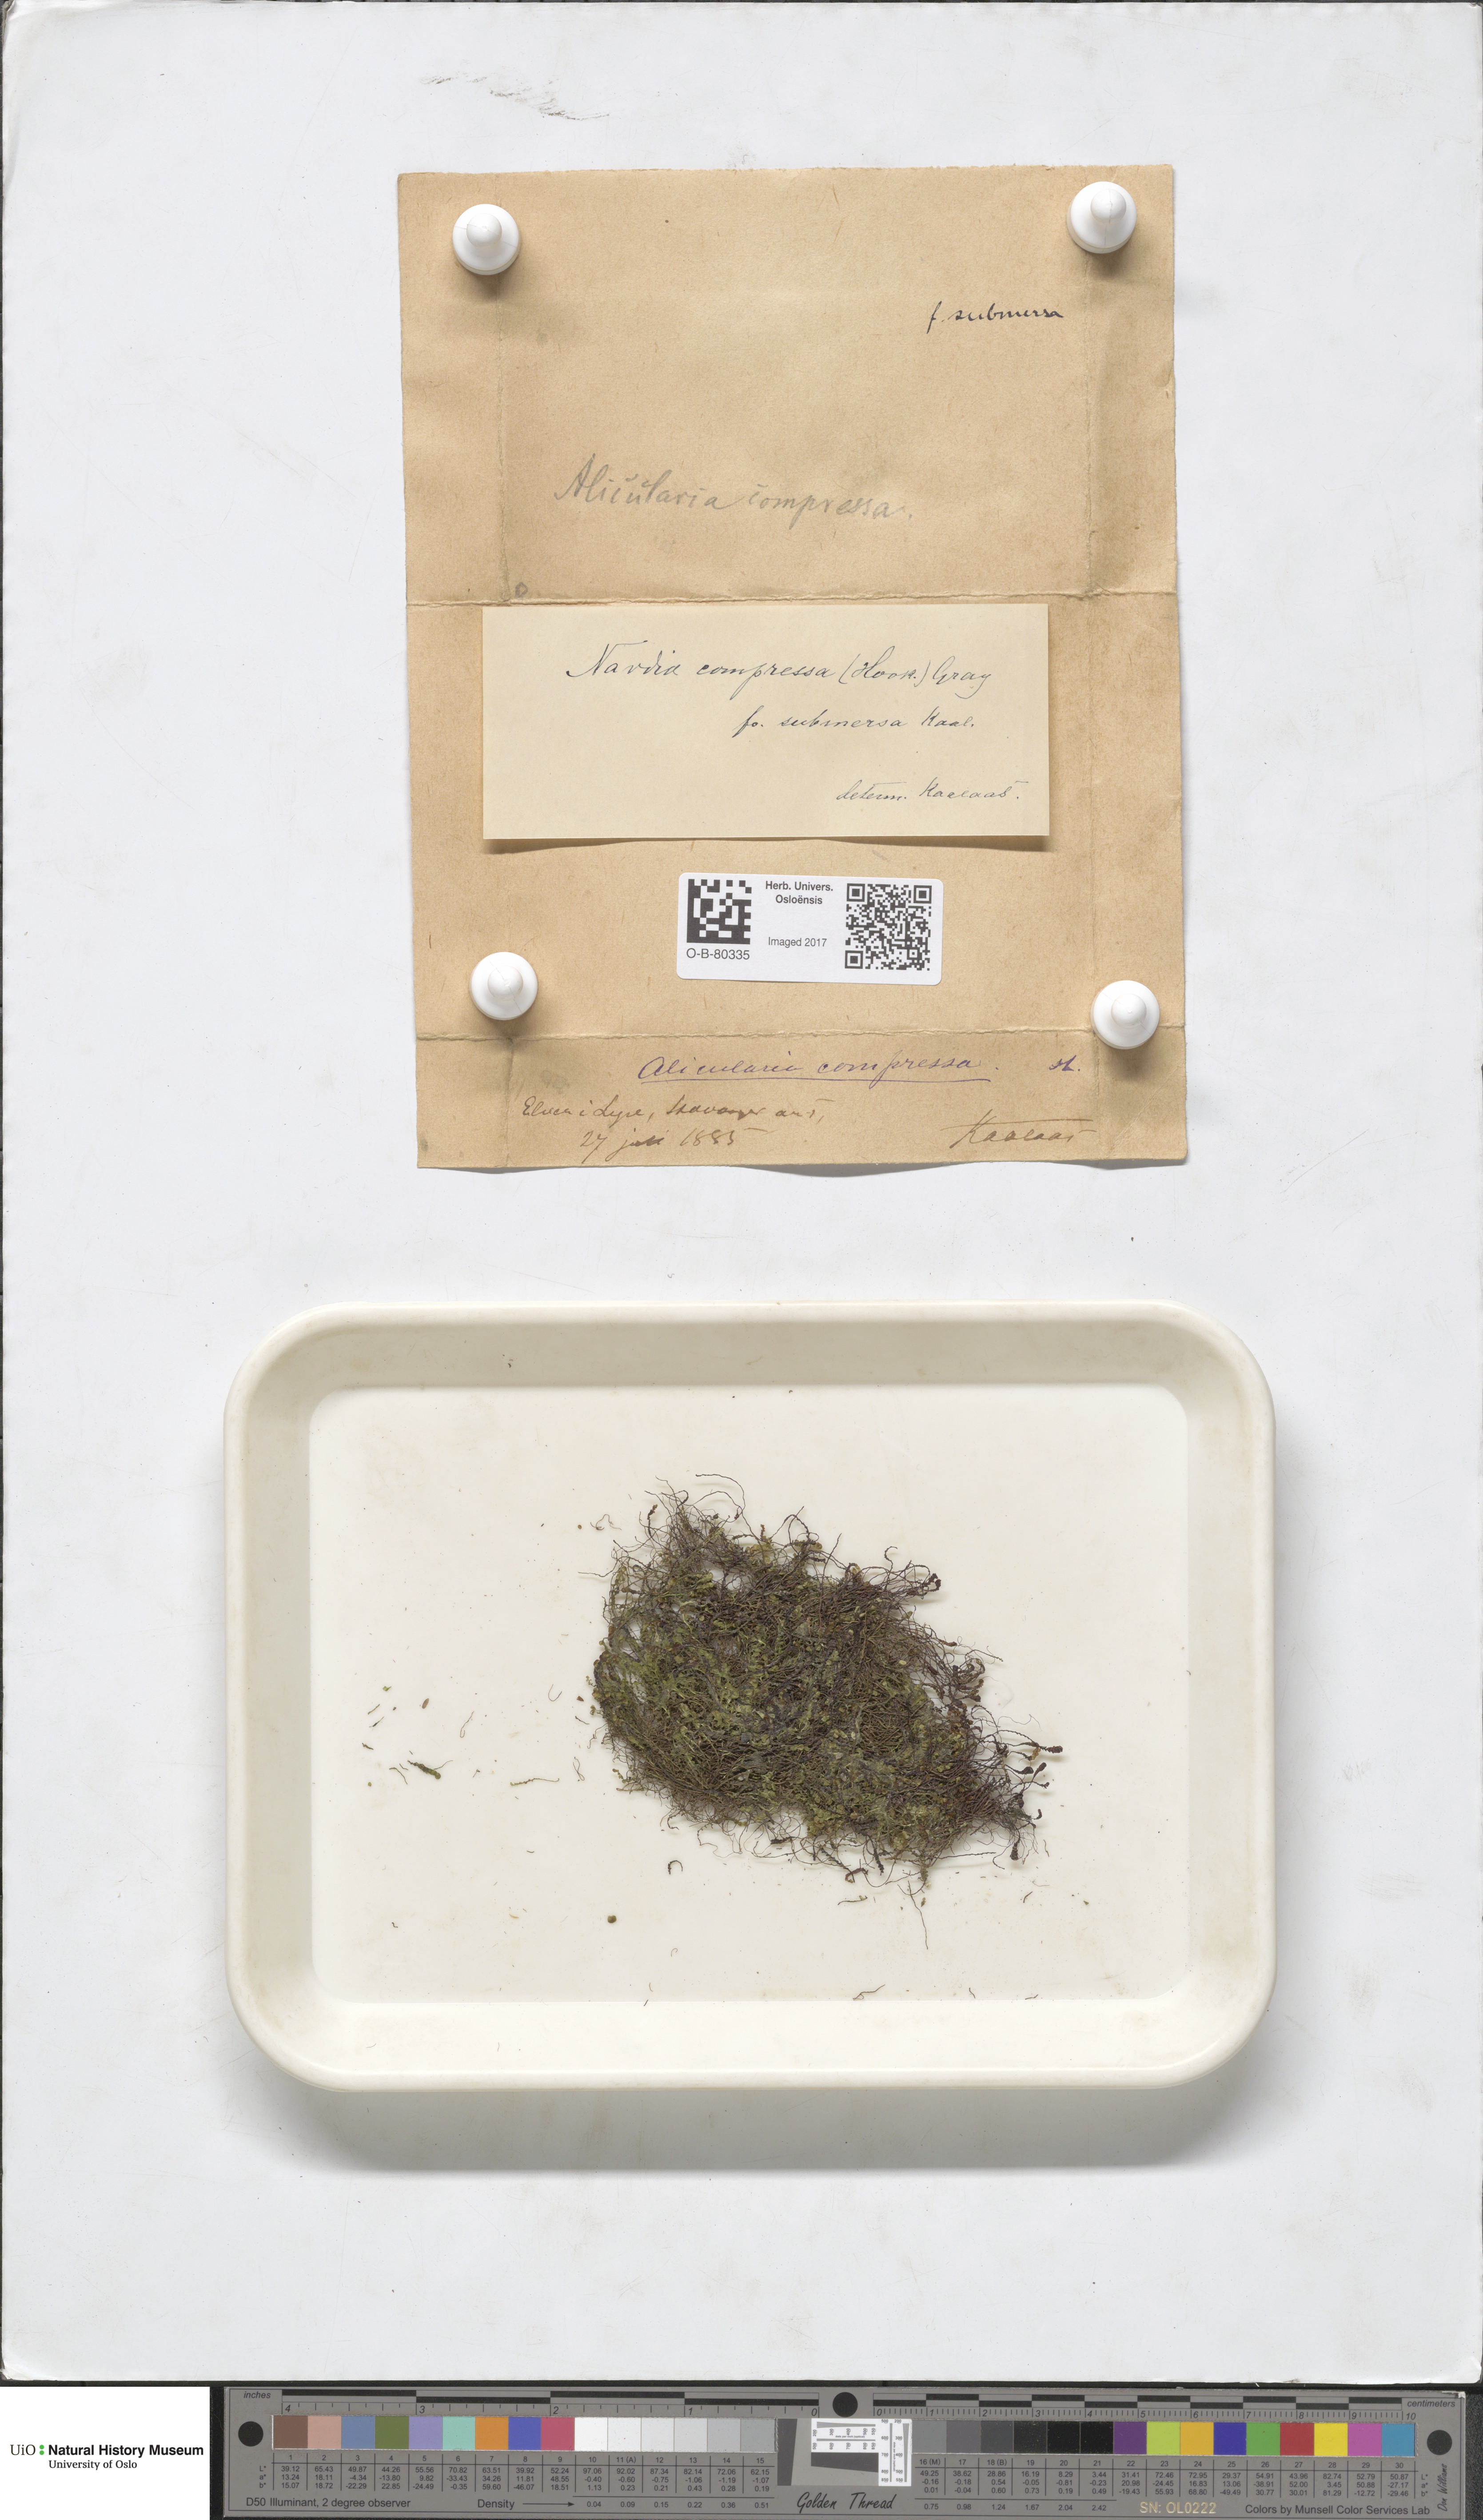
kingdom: Plantae
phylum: Marchantiophyta
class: Jungermanniopsida
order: Jungermanniales
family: Gymnomitriaceae
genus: Nardia
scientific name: Nardia compressa
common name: Compressed flapwort
